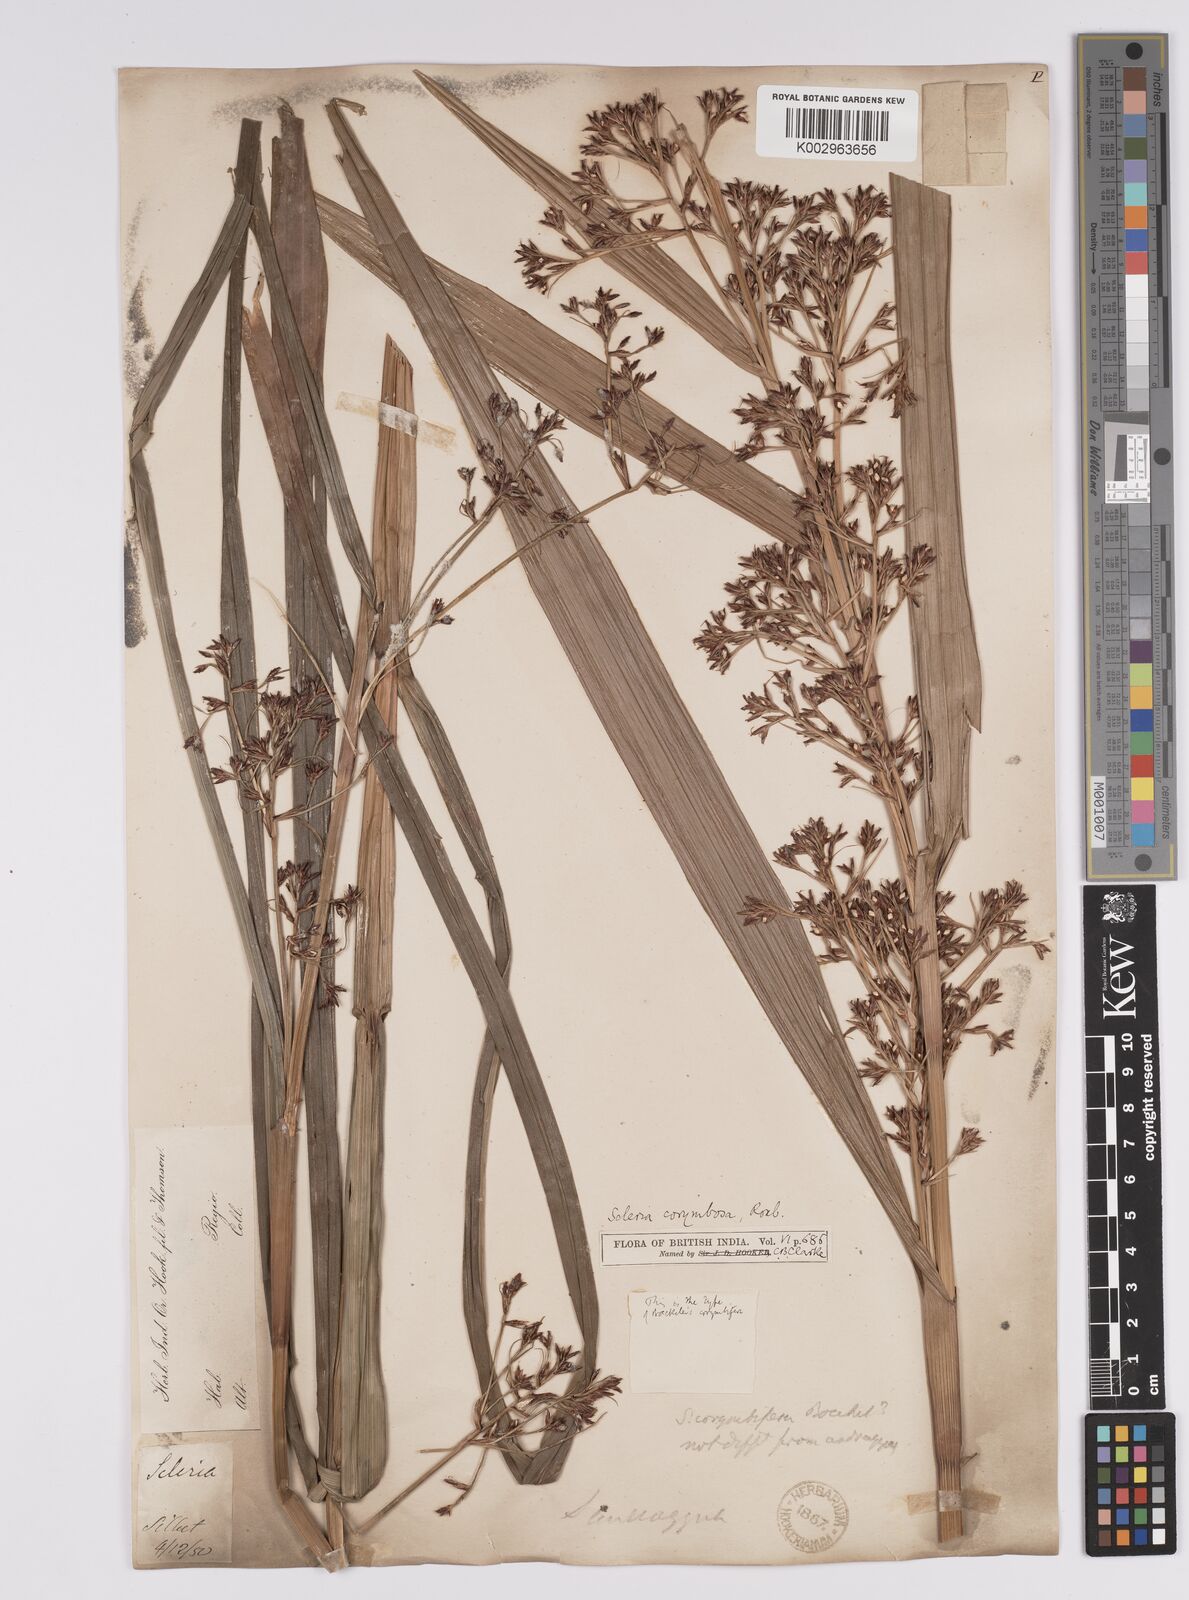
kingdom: Plantae
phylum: Tracheophyta
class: Liliopsida
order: Poales
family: Cyperaceae
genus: Scleria
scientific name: Scleria corymbosa
